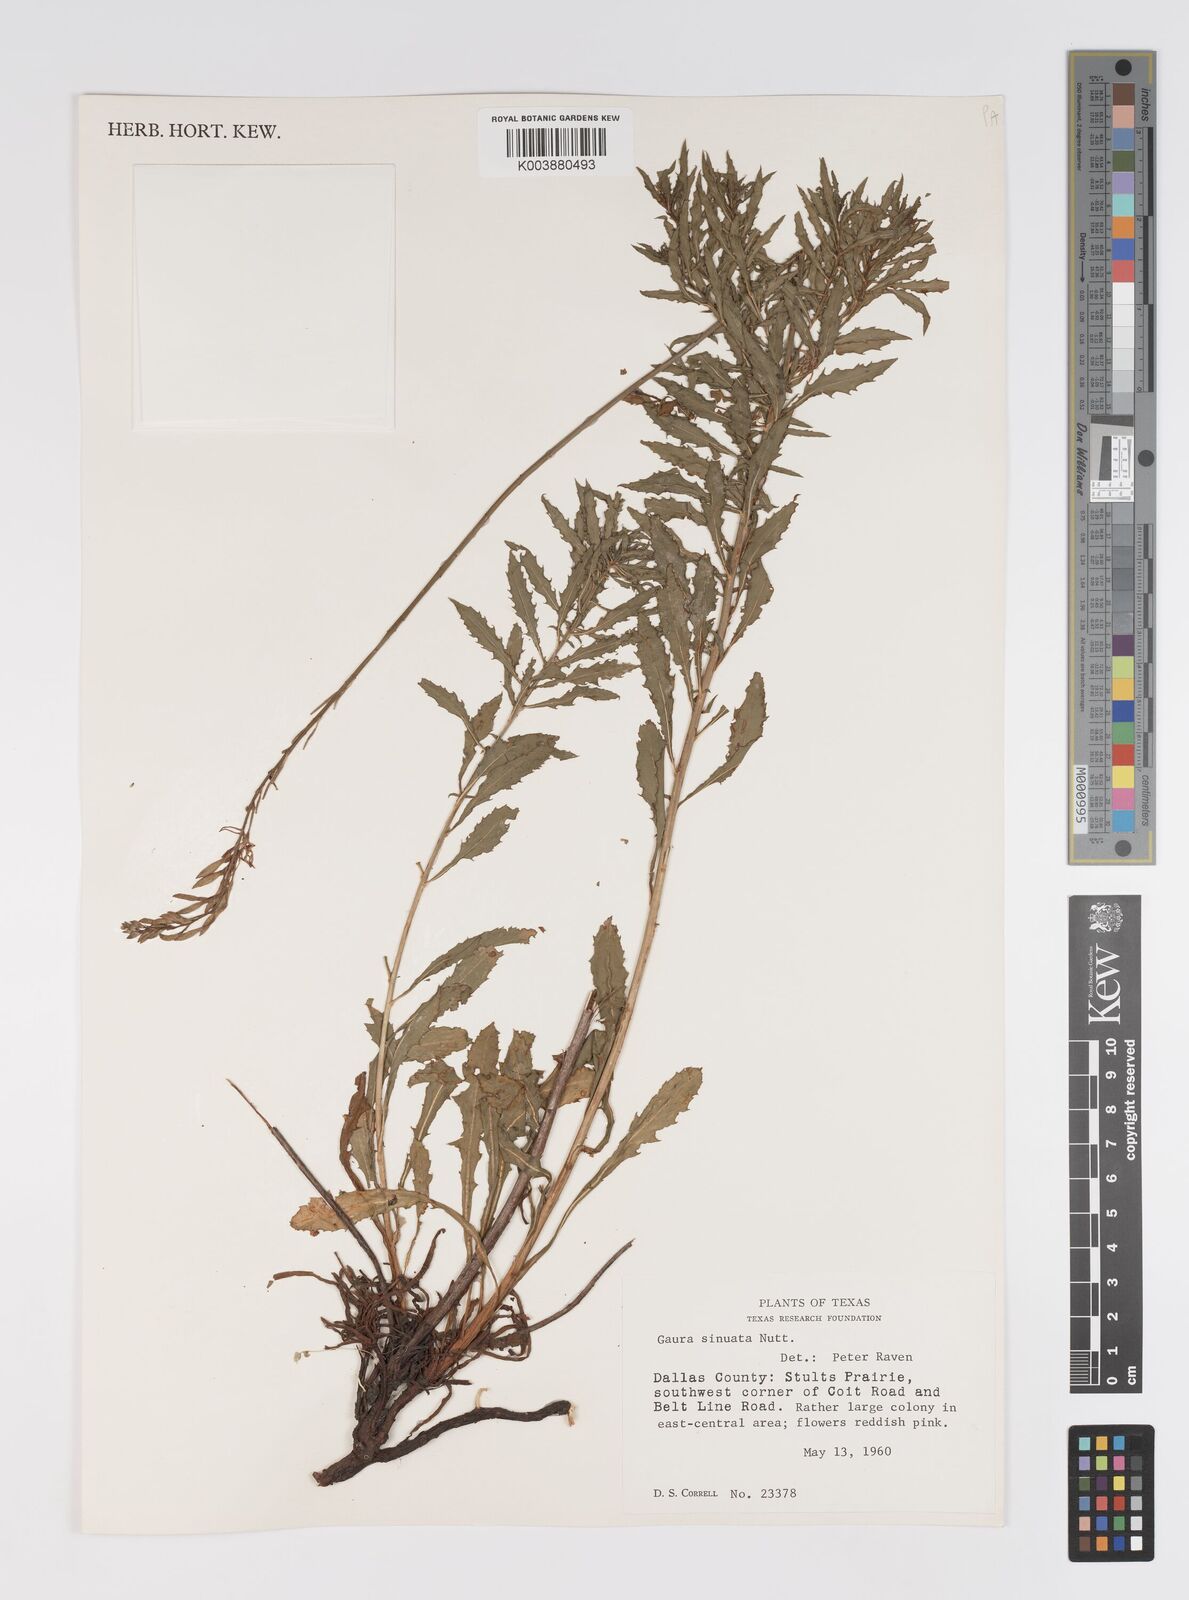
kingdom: Plantae
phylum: Tracheophyta
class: Magnoliopsida
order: Myrtales
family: Onagraceae
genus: Oenothera
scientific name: Oenothera sinuosa
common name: Wavyleaf beeblossom
